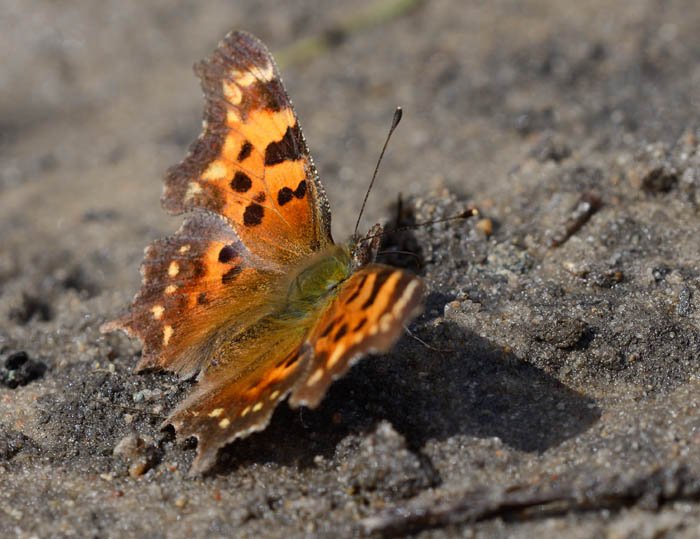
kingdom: Animalia
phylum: Arthropoda
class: Insecta
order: Lepidoptera
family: Nymphalidae
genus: Polygonia
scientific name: Polygonia faunus
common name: Green Comma
